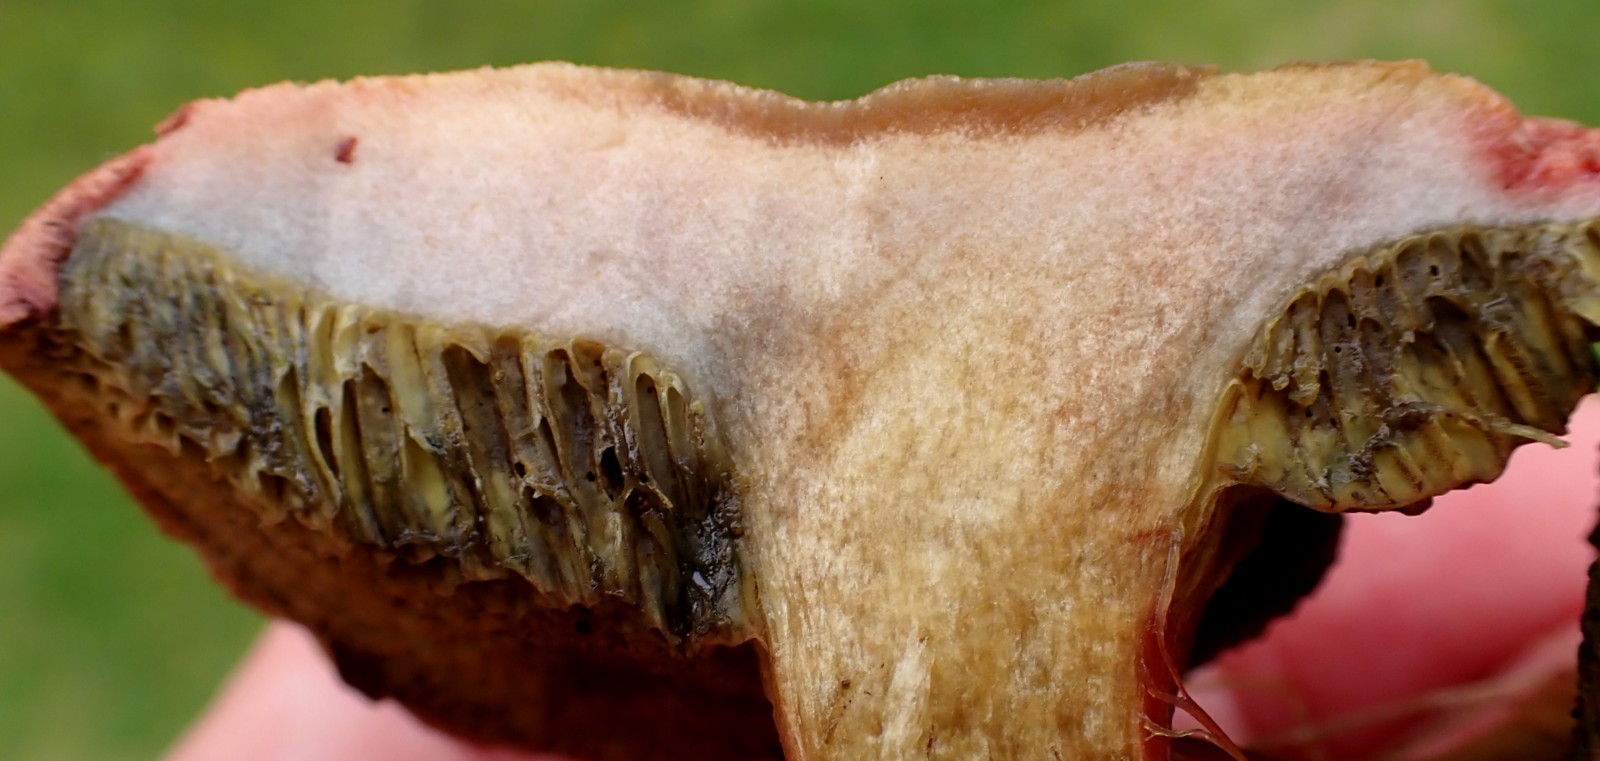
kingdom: Fungi
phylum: Basidiomycota
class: Agaricomycetes
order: Boletales
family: Boletaceae
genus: Hortiboletus
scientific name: Hortiboletus bubalinus
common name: aurora-rørhat
